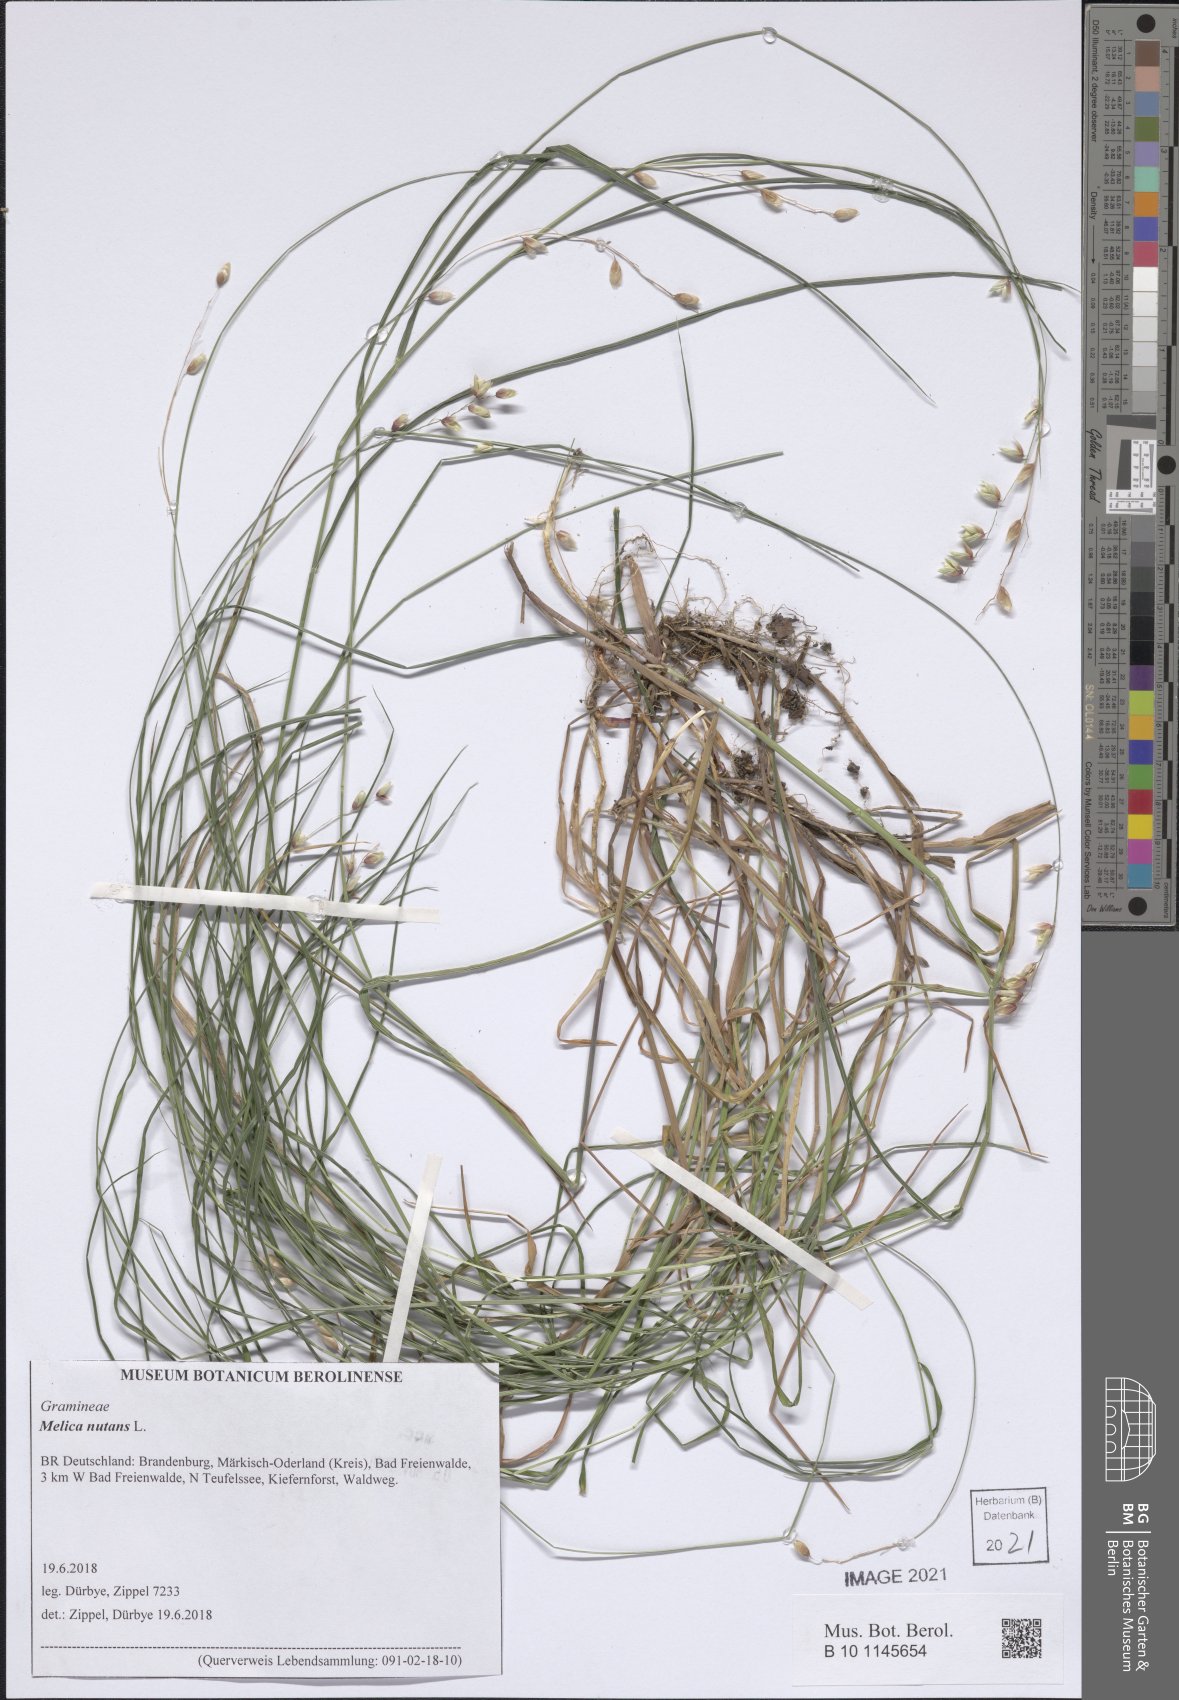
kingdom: Plantae
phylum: Tracheophyta
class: Liliopsida
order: Poales
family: Poaceae
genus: Melica
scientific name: Melica nutans
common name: Mountain melick
